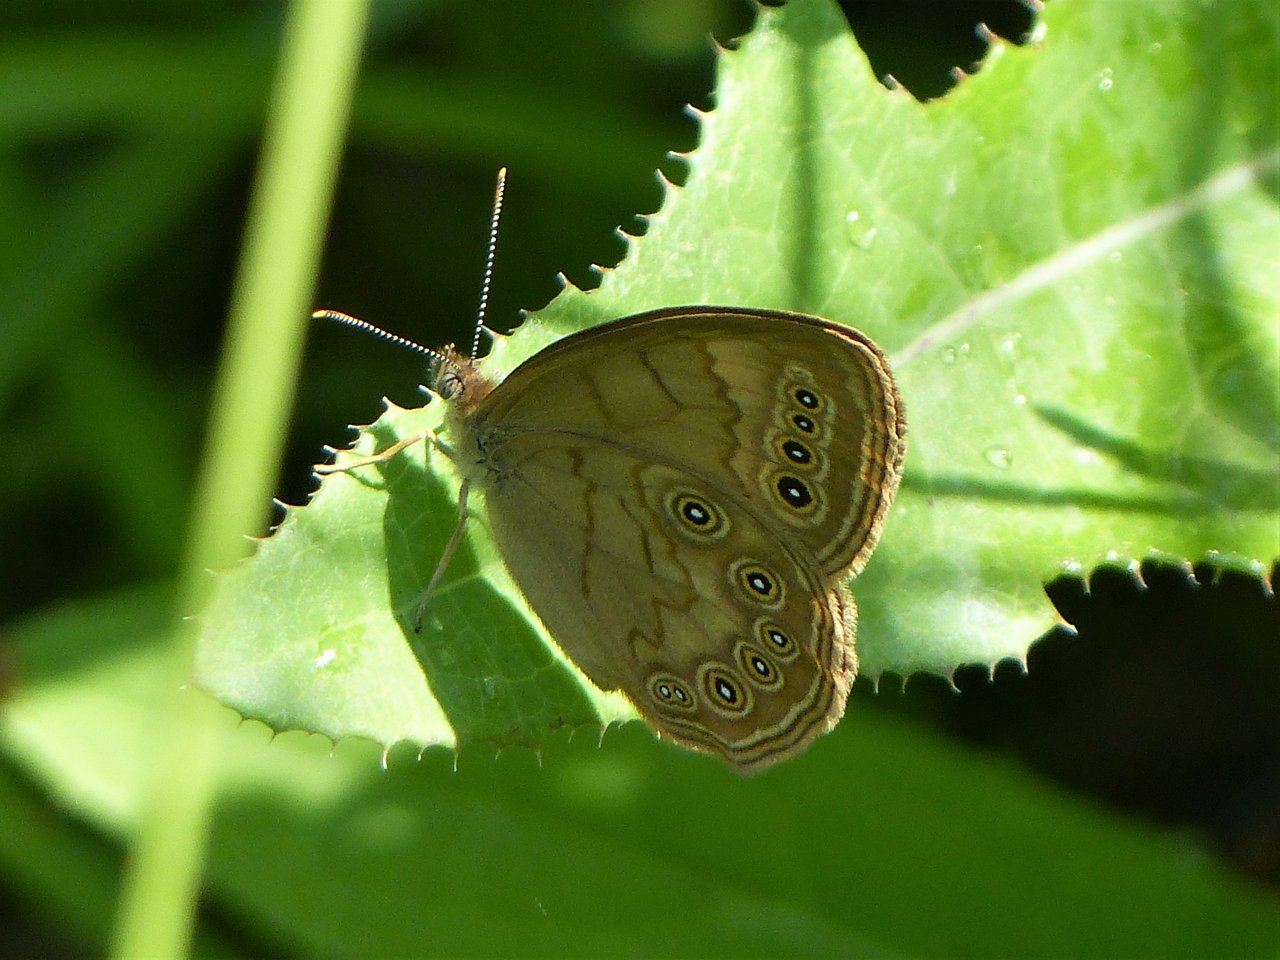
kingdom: Animalia
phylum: Arthropoda
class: Insecta
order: Lepidoptera
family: Nymphalidae
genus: Lethe
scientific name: Lethe eurydice
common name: Eyed Brown
